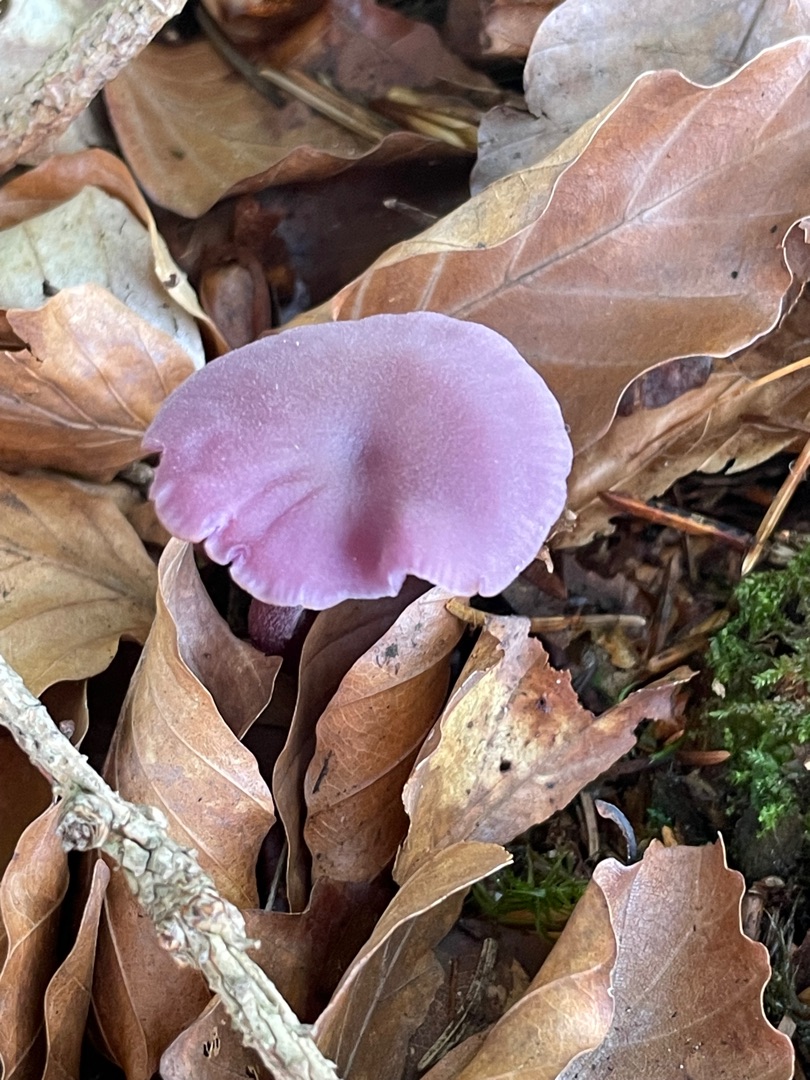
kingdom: Fungi
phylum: Basidiomycota
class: Agaricomycetes
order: Agaricales
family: Hydnangiaceae
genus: Laccaria
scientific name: Laccaria amethystina
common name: Violet ametysthat
